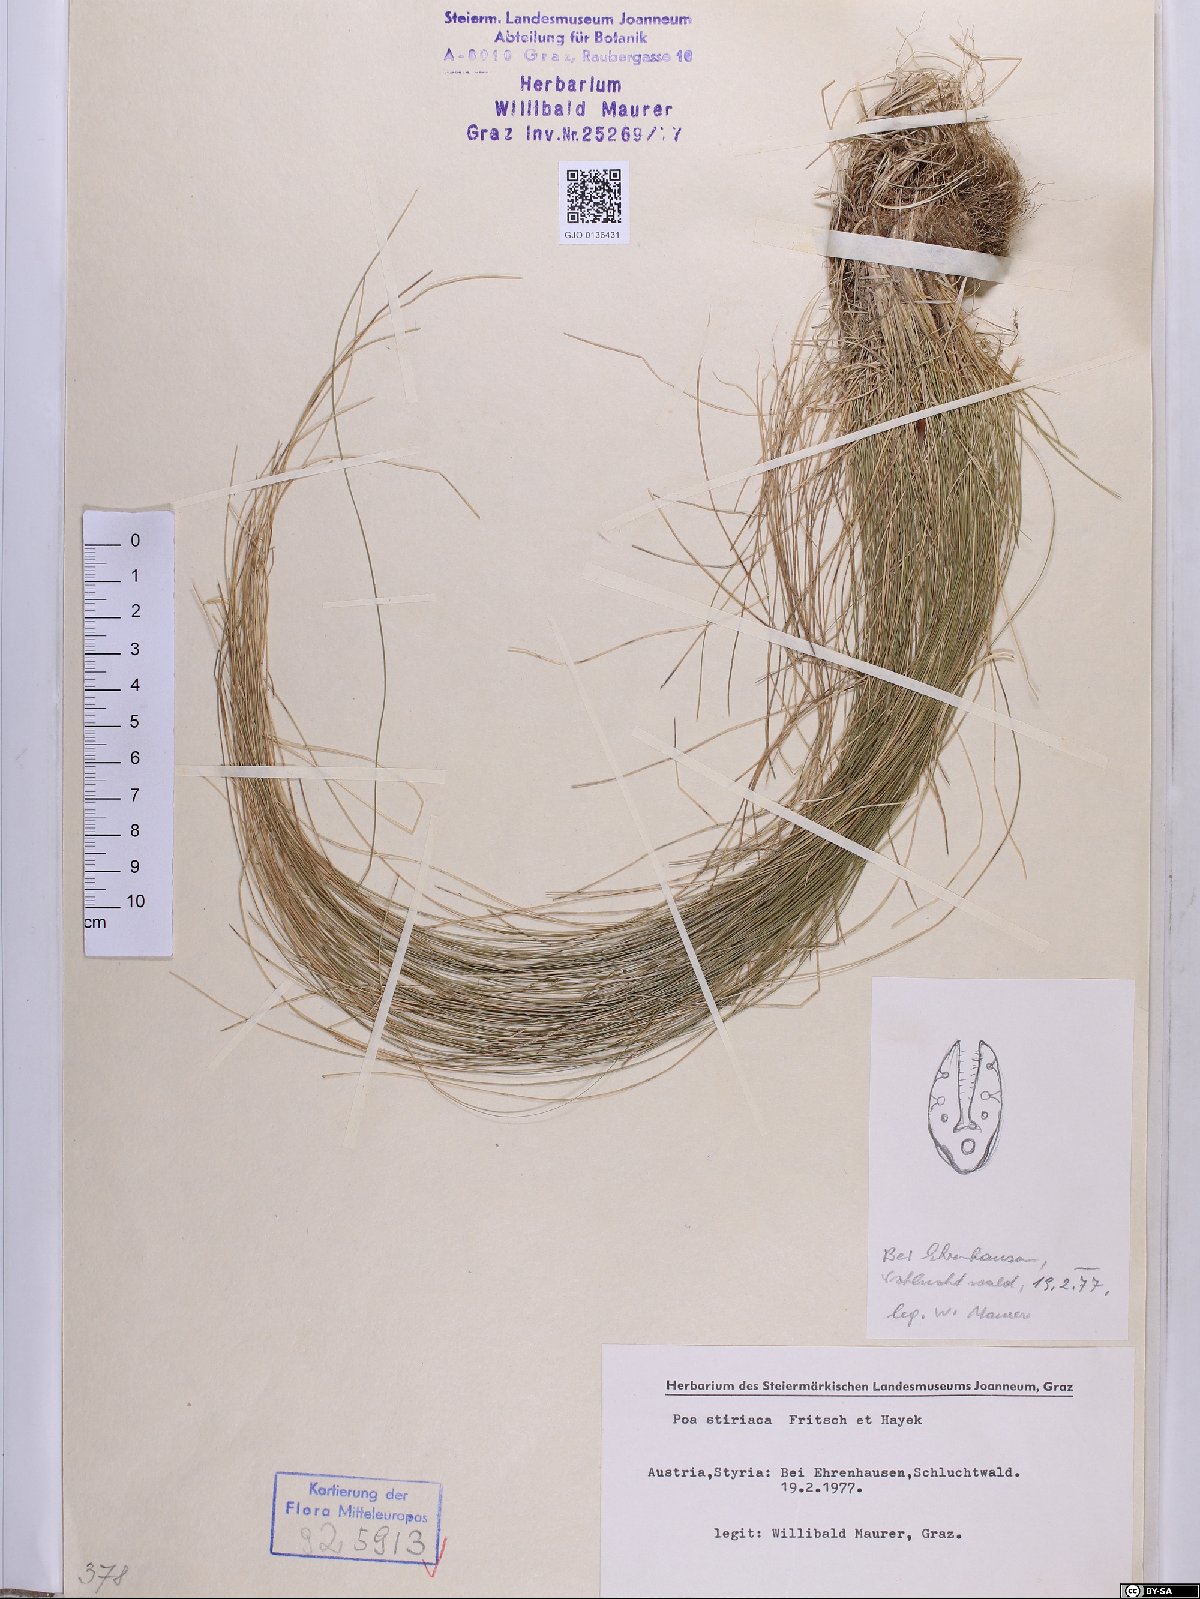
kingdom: Plantae
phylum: Tracheophyta
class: Liliopsida
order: Poales
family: Poaceae
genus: Poa
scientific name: Poa stiriaca
